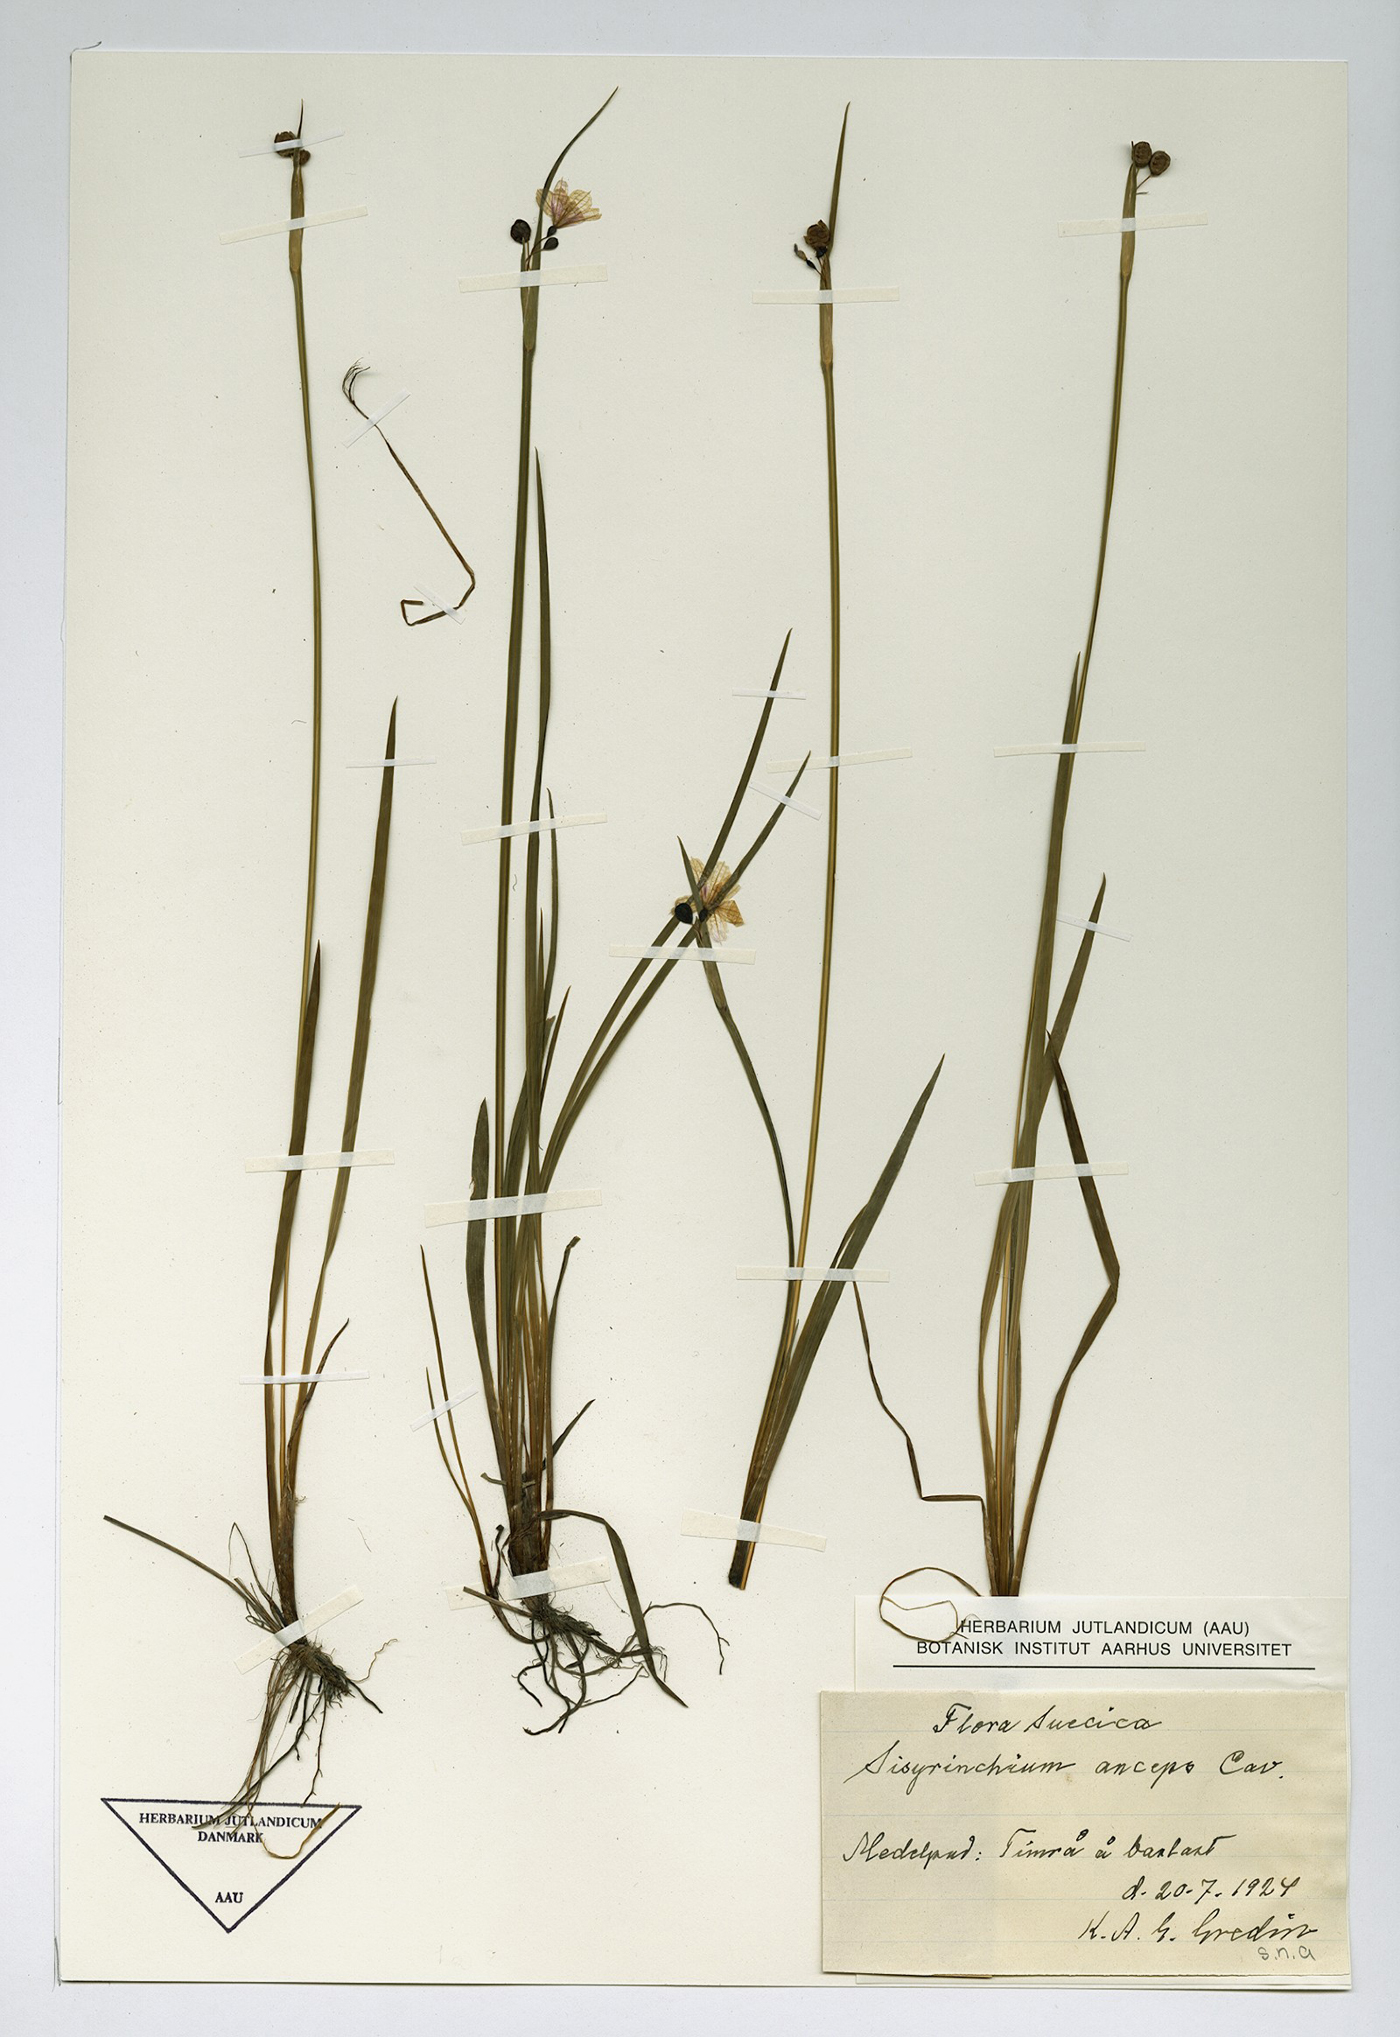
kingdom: Plantae
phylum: Tracheophyta
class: Liliopsida
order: Asparagales
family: Iridaceae
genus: Sisyrinchium
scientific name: Sisyrinchium montanum
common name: American blue-eyed-grass
